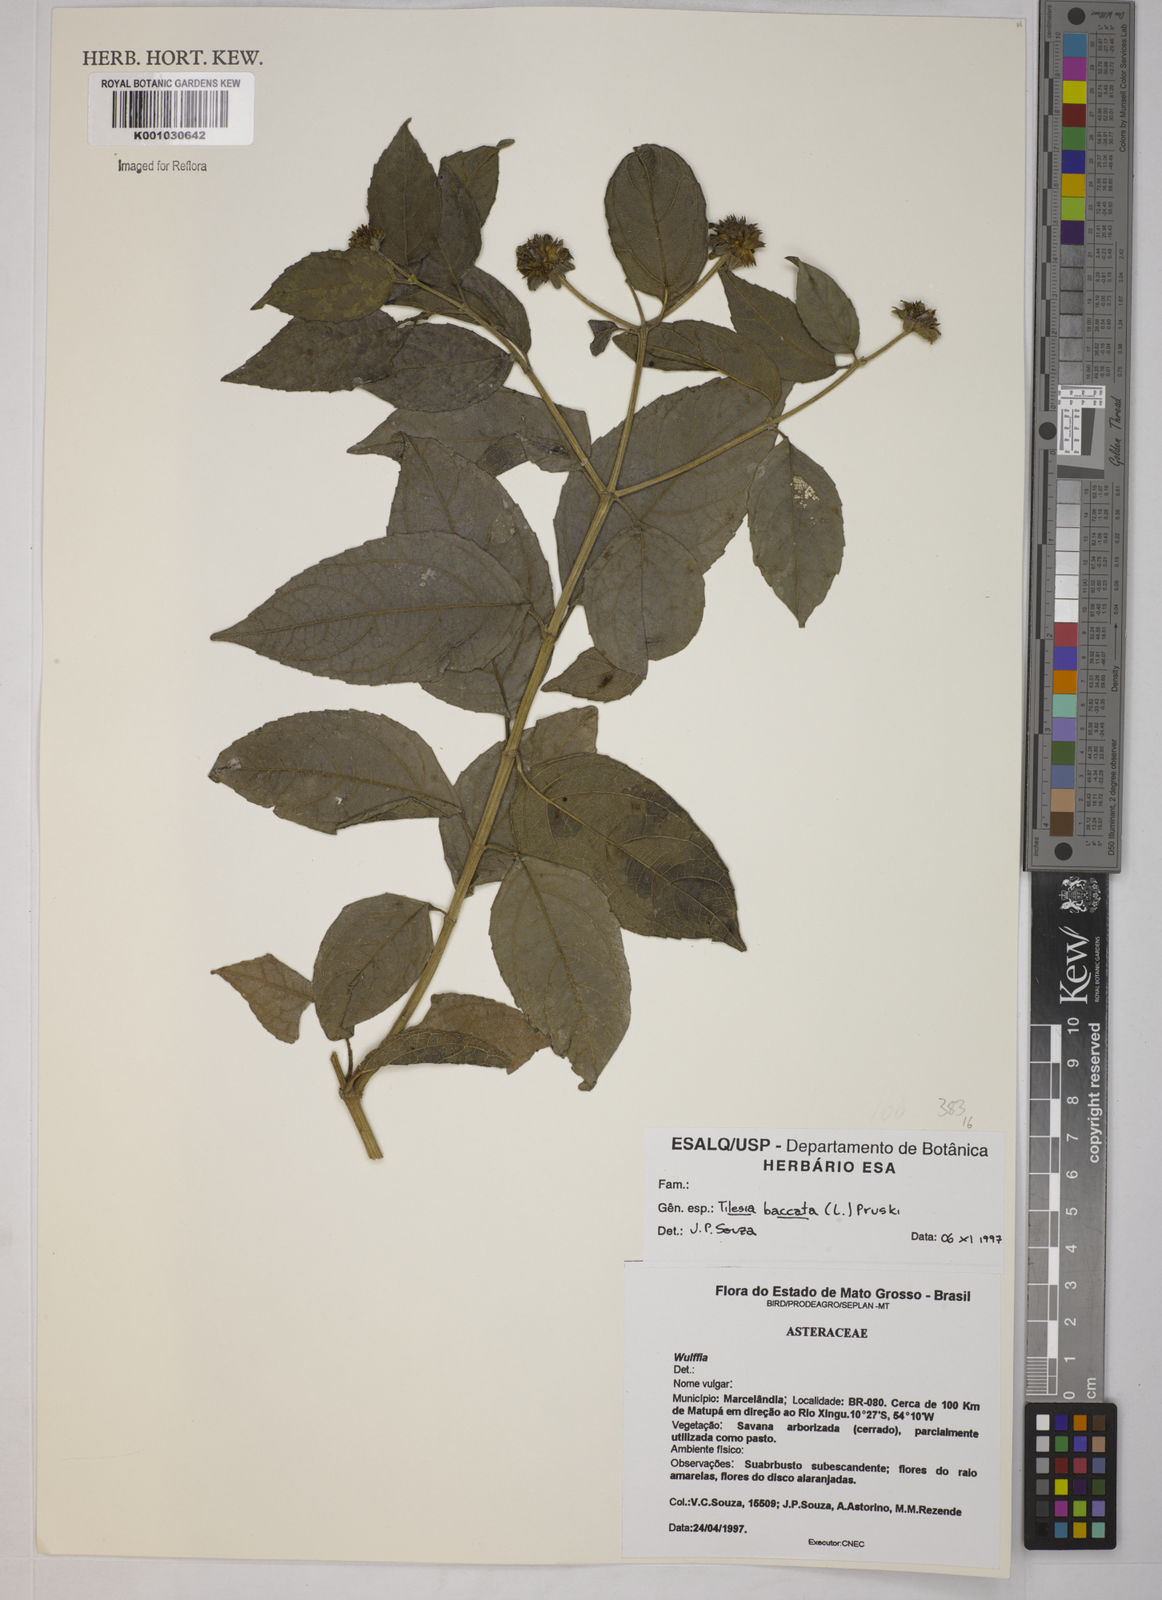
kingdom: Plantae
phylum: Tracheophyta
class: Magnoliopsida
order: Asterales
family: Asteraceae
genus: Tilesia
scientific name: Tilesia baccata
